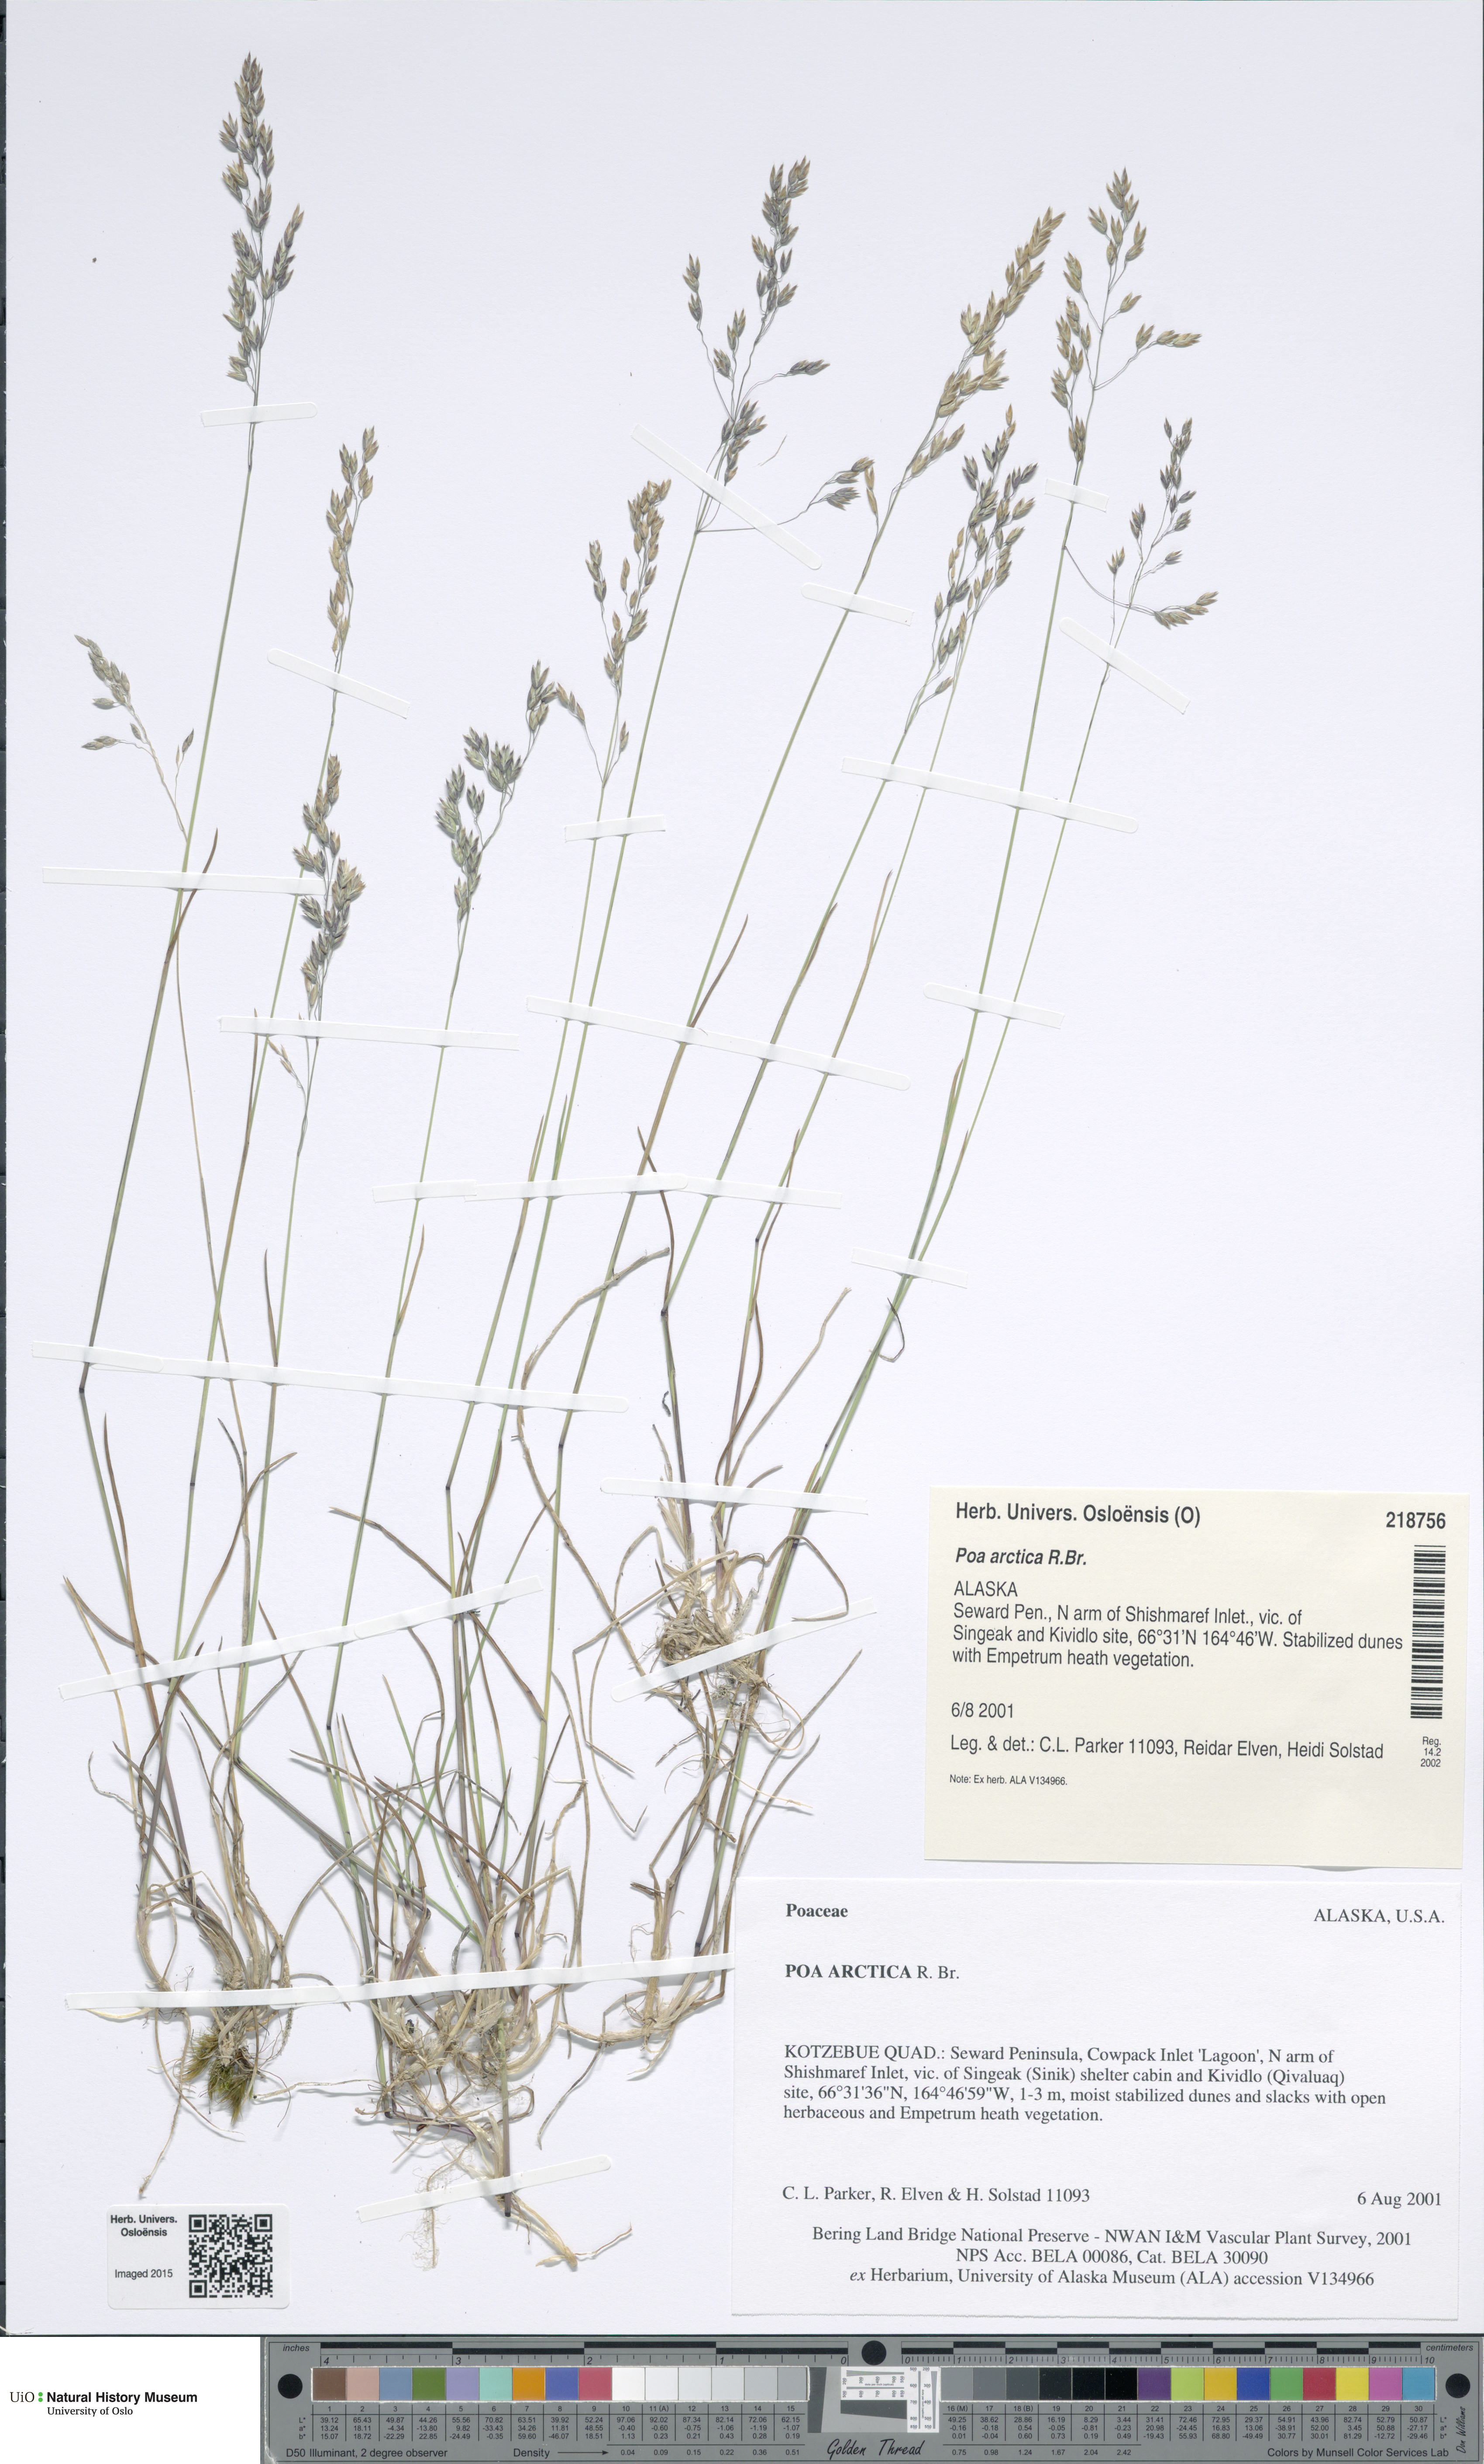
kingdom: Plantae
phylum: Tracheophyta
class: Liliopsida
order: Poales
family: Poaceae
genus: Poa
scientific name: Poa arctica
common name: Arctic bluegrass
